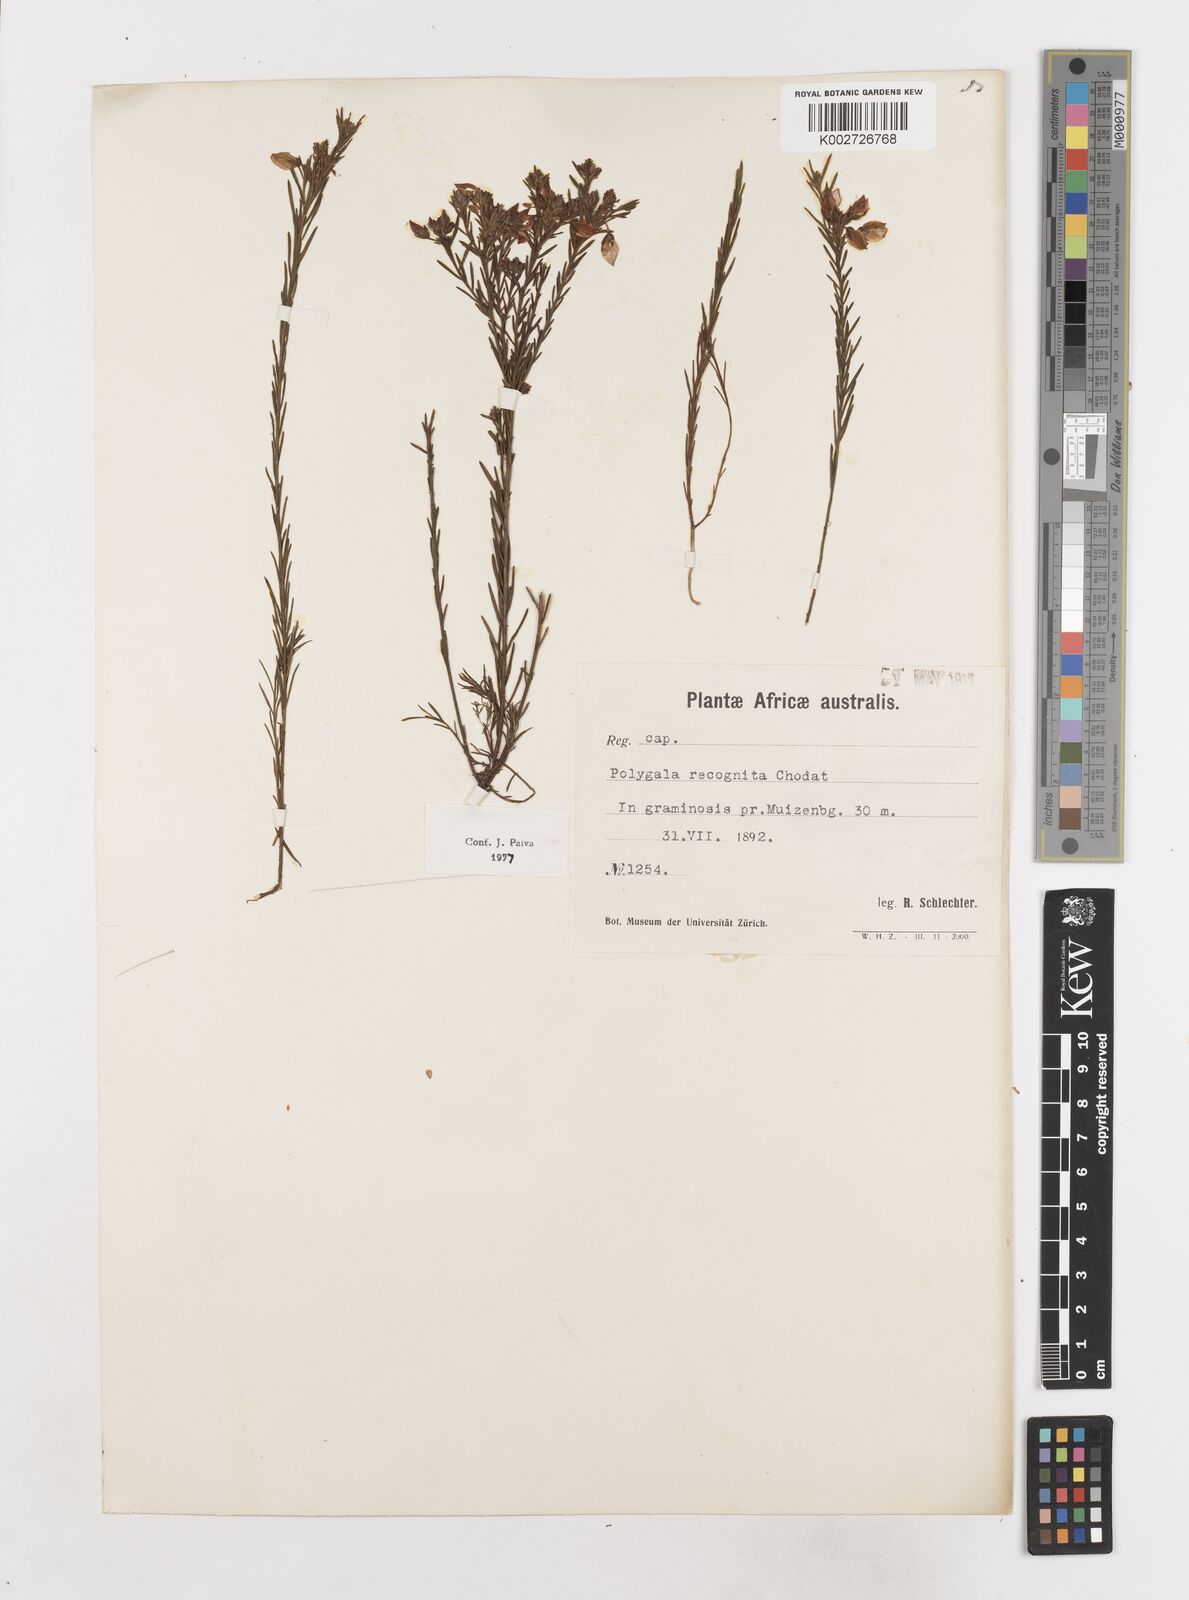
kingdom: Plantae
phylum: Tracheophyta
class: Magnoliopsida
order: Fabales
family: Polygalaceae
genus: Polygala
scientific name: Polygala recognita
